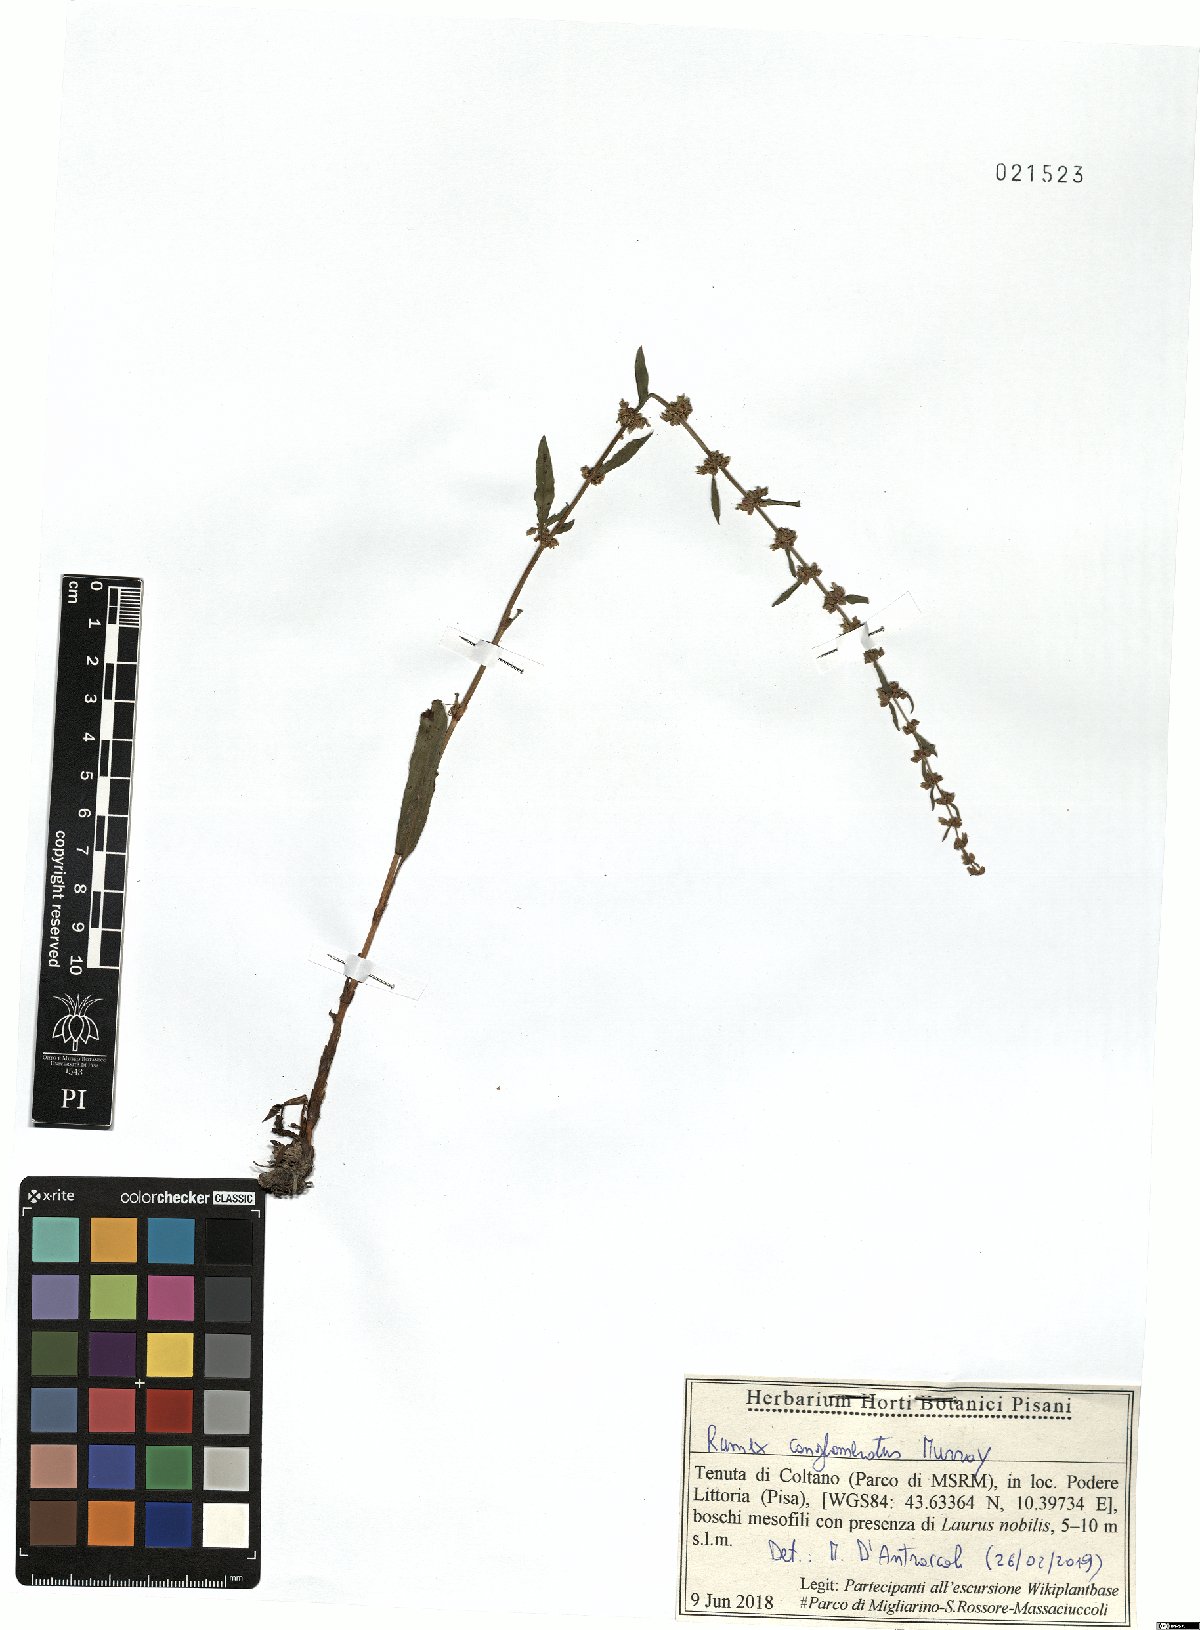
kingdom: Plantae
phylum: Tracheophyta
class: Magnoliopsida
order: Caryophyllales
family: Polygonaceae
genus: Rumex
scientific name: Rumex conglomeratus
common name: Clustered dock
